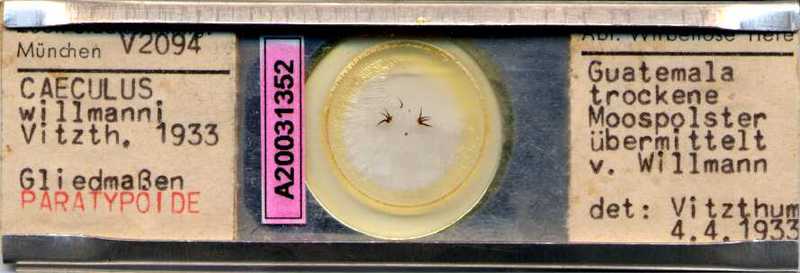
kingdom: Animalia
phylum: Arthropoda
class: Arachnida
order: Trombidiformes
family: Caeculidae
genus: Caeculus
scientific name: Caeculus
